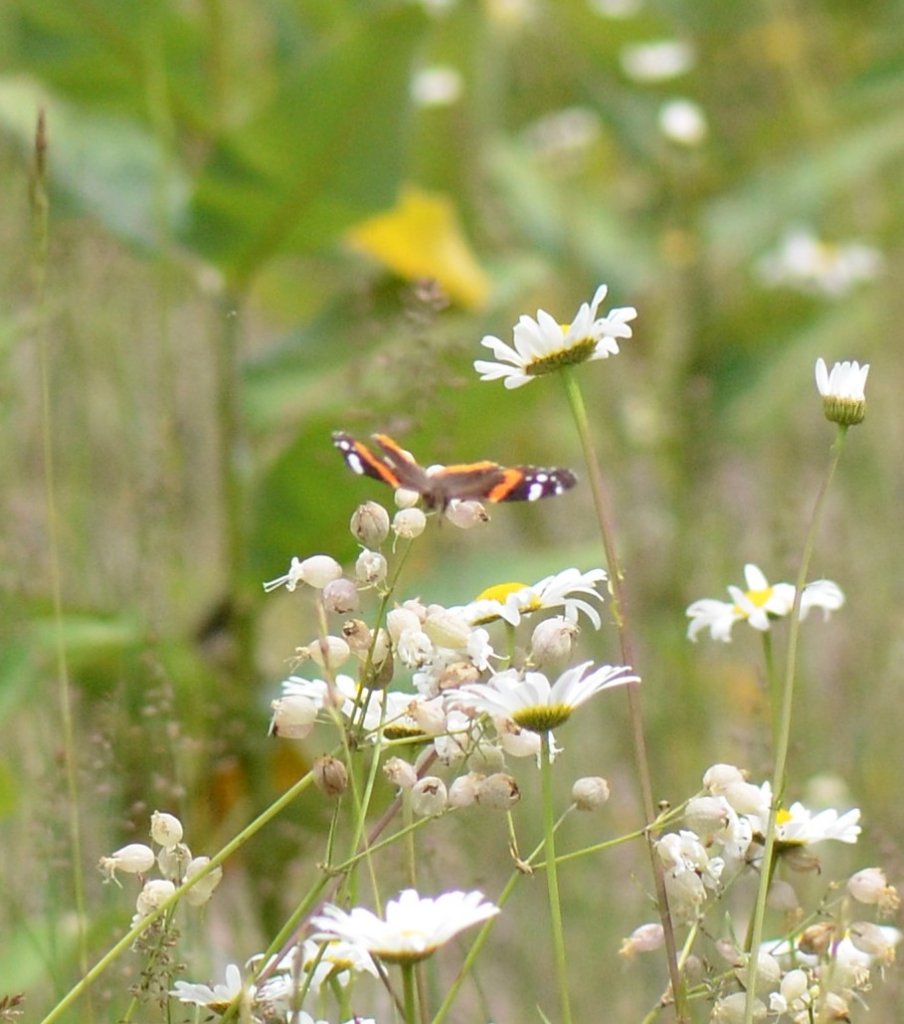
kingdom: Animalia
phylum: Arthropoda
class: Insecta
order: Lepidoptera
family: Nymphalidae
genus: Vanessa
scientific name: Vanessa atalanta
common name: Red Admiral
